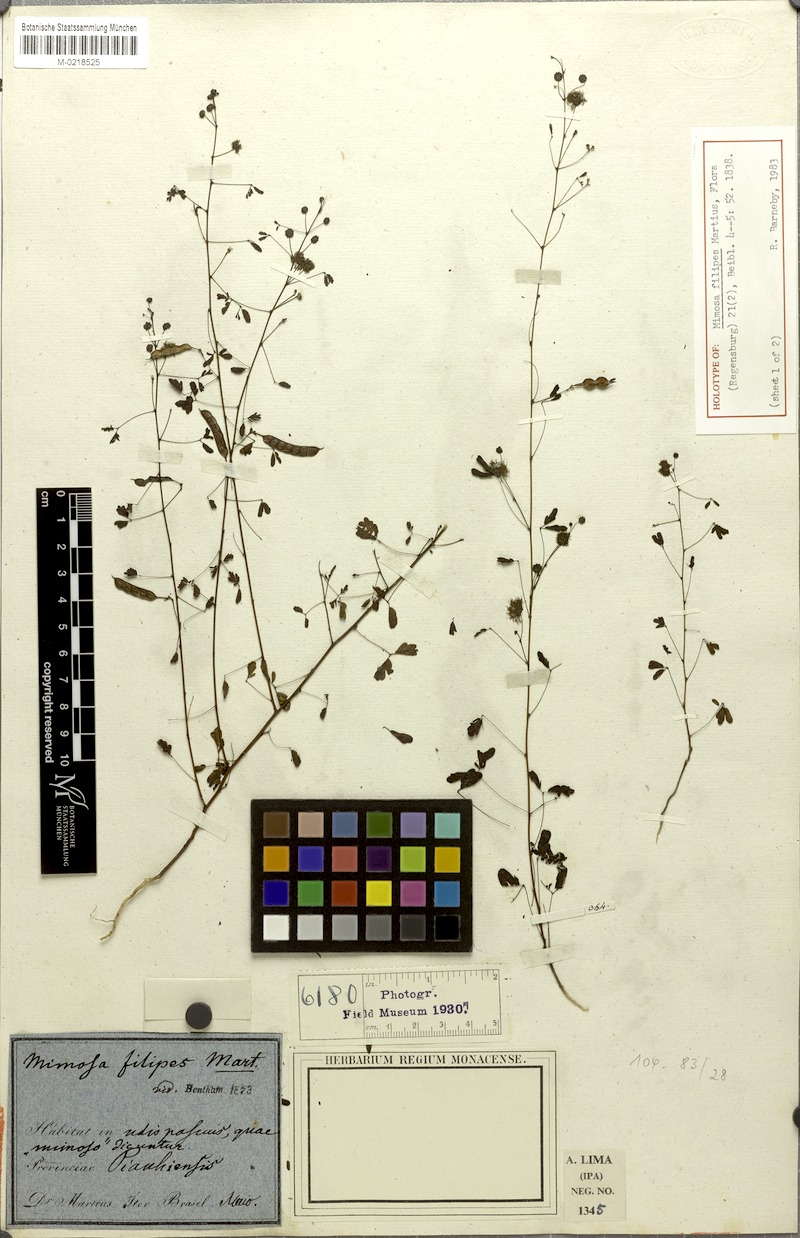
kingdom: Plantae
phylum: Tracheophyta
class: Magnoliopsida
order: Fabales
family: Fabaceae
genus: Mimosa
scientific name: Mimosa filipes
